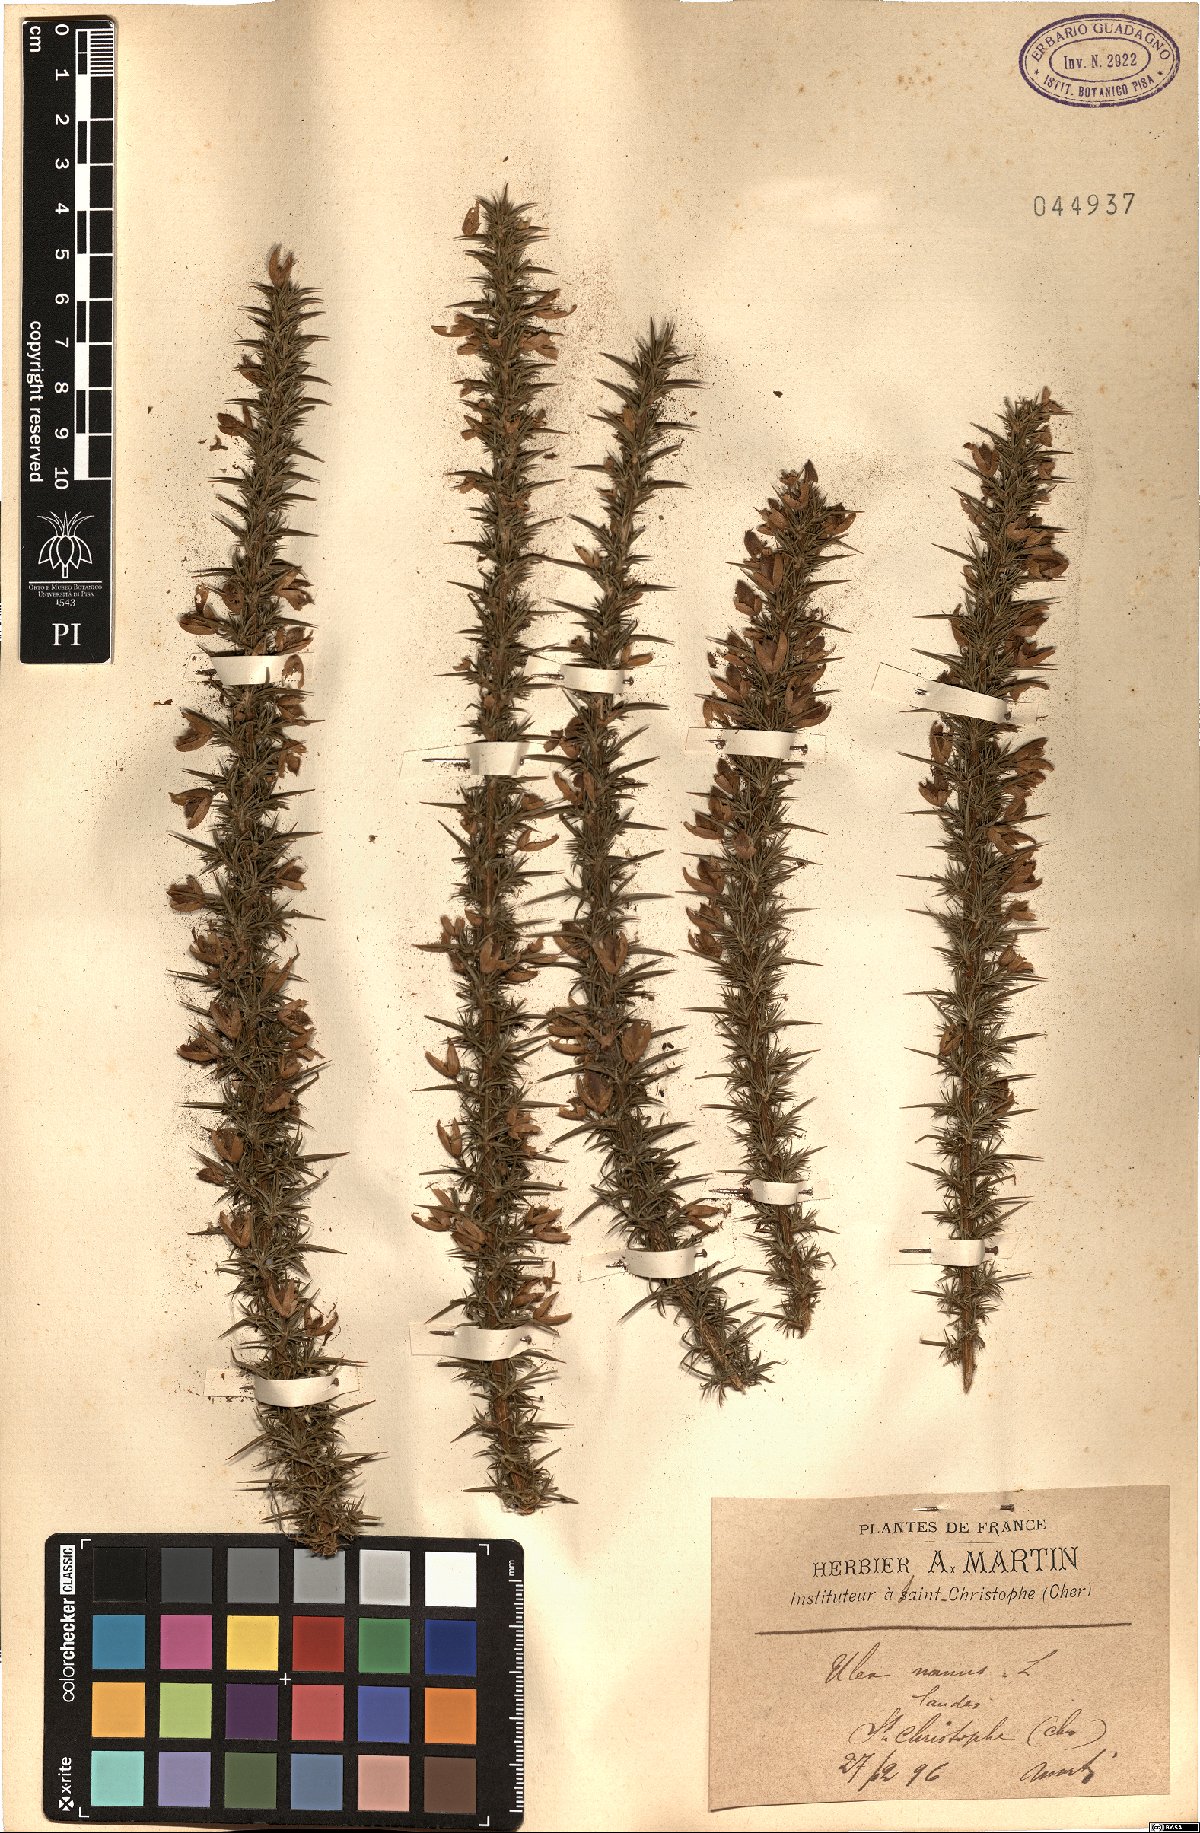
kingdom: Plantae
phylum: Tracheophyta
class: Magnoliopsida
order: Fabales
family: Fabaceae
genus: Ulex
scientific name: Ulex
